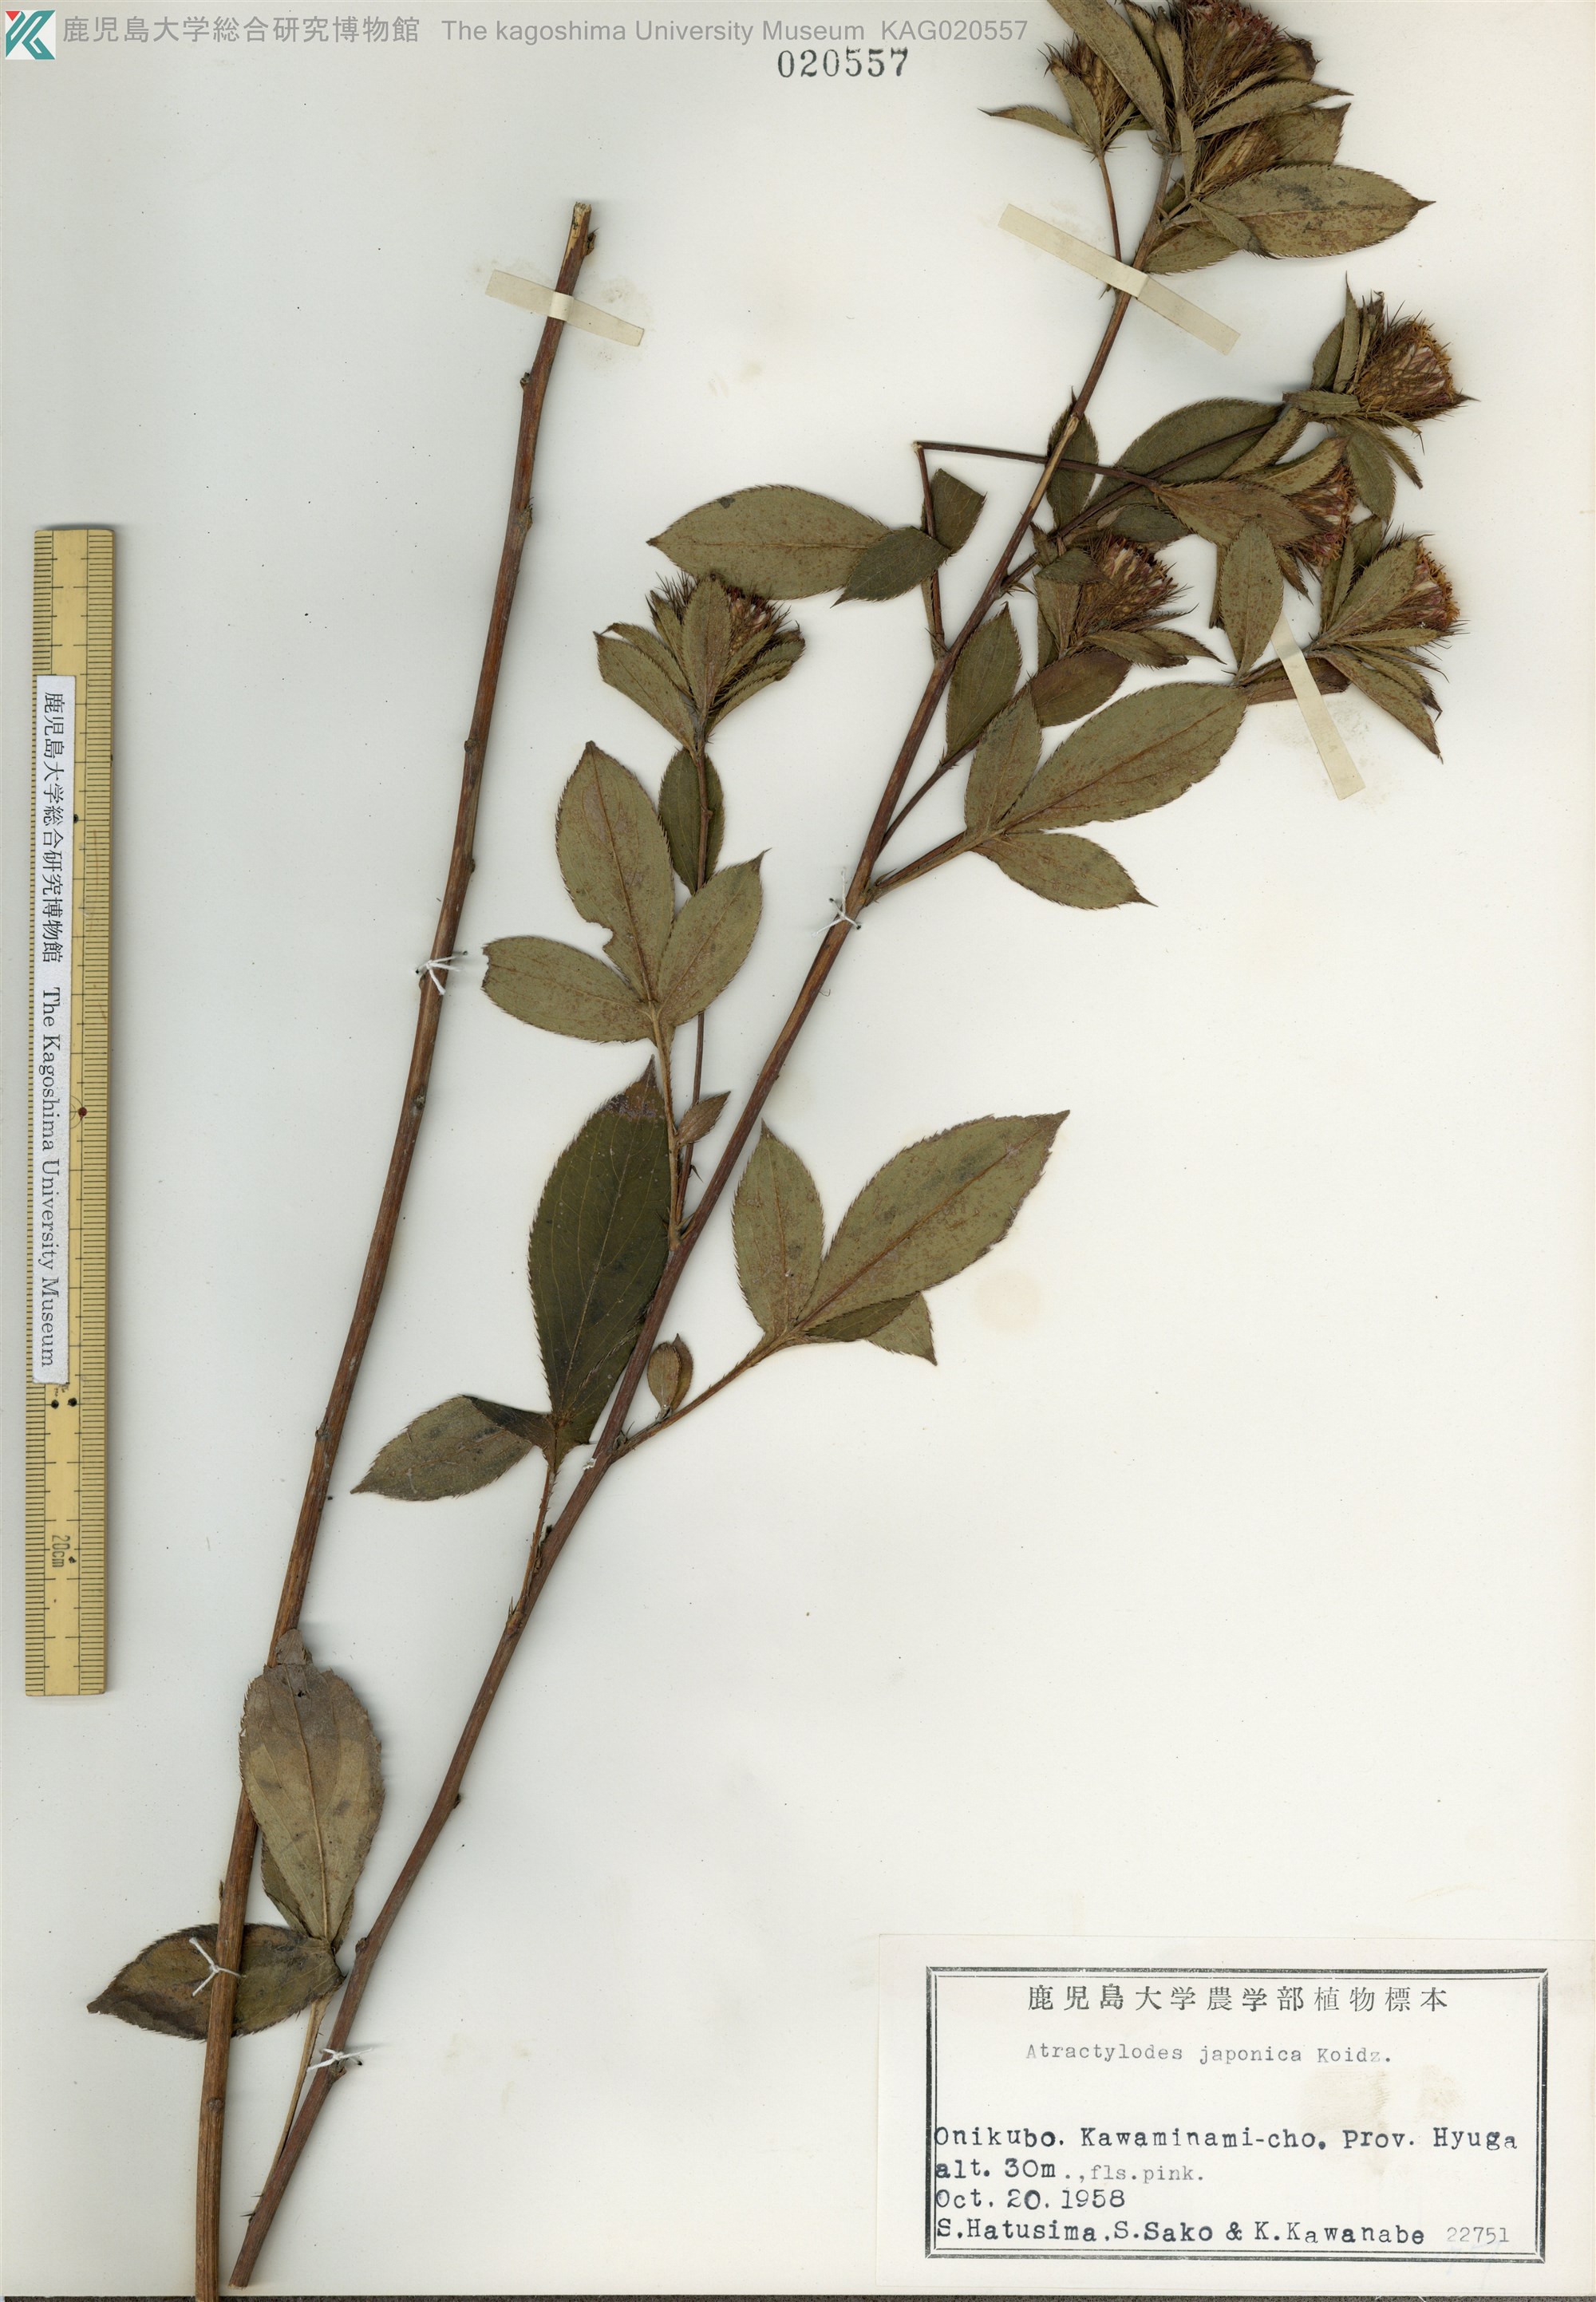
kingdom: Plantae
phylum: Tracheophyta
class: Magnoliopsida
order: Asterales
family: Asteraceae
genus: Atractylodes
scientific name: Atractylodes lancea
